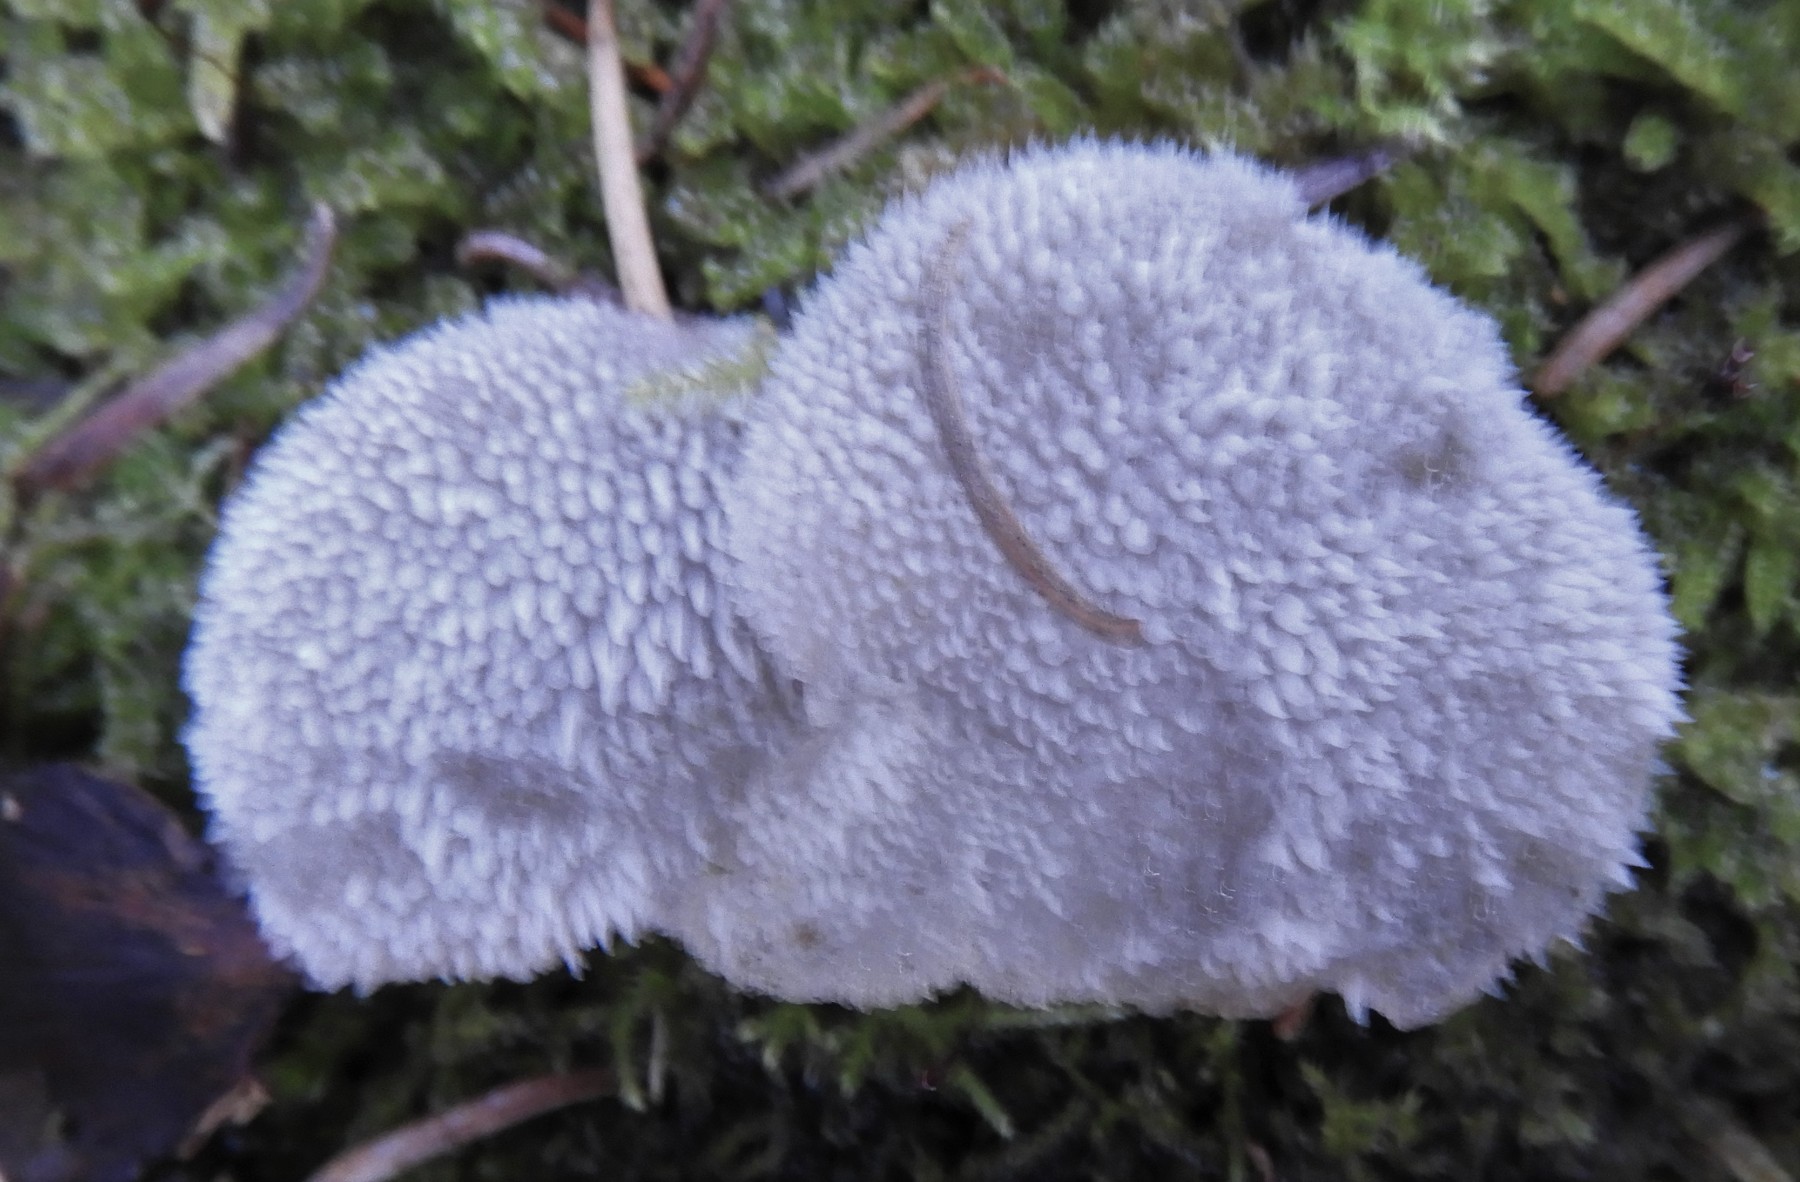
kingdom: Fungi
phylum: Basidiomycota
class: Agaricomycetes
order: Auriculariales
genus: Pseudohydnum
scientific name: Pseudohydnum gelatinosum
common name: bævretand
